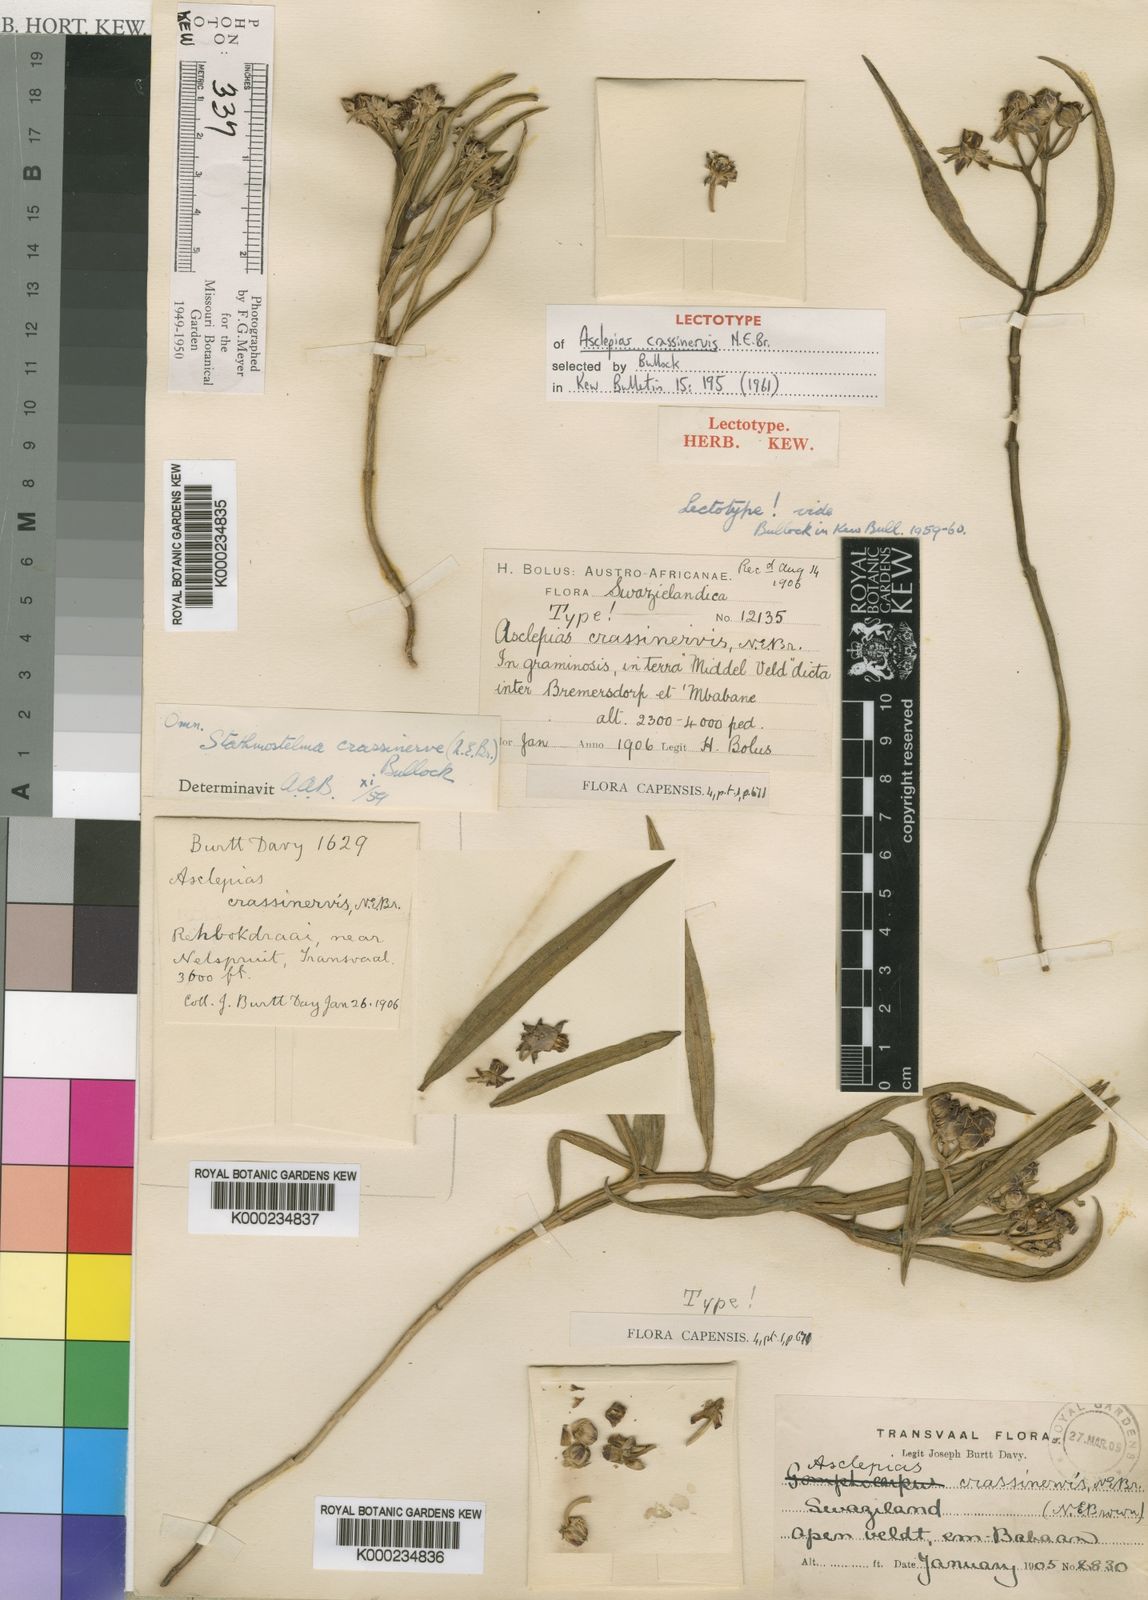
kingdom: Plantae
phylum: Tracheophyta
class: Magnoliopsida
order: Gentianales
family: Apocynaceae
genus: Asclepias
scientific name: Asclepias crassinervis
